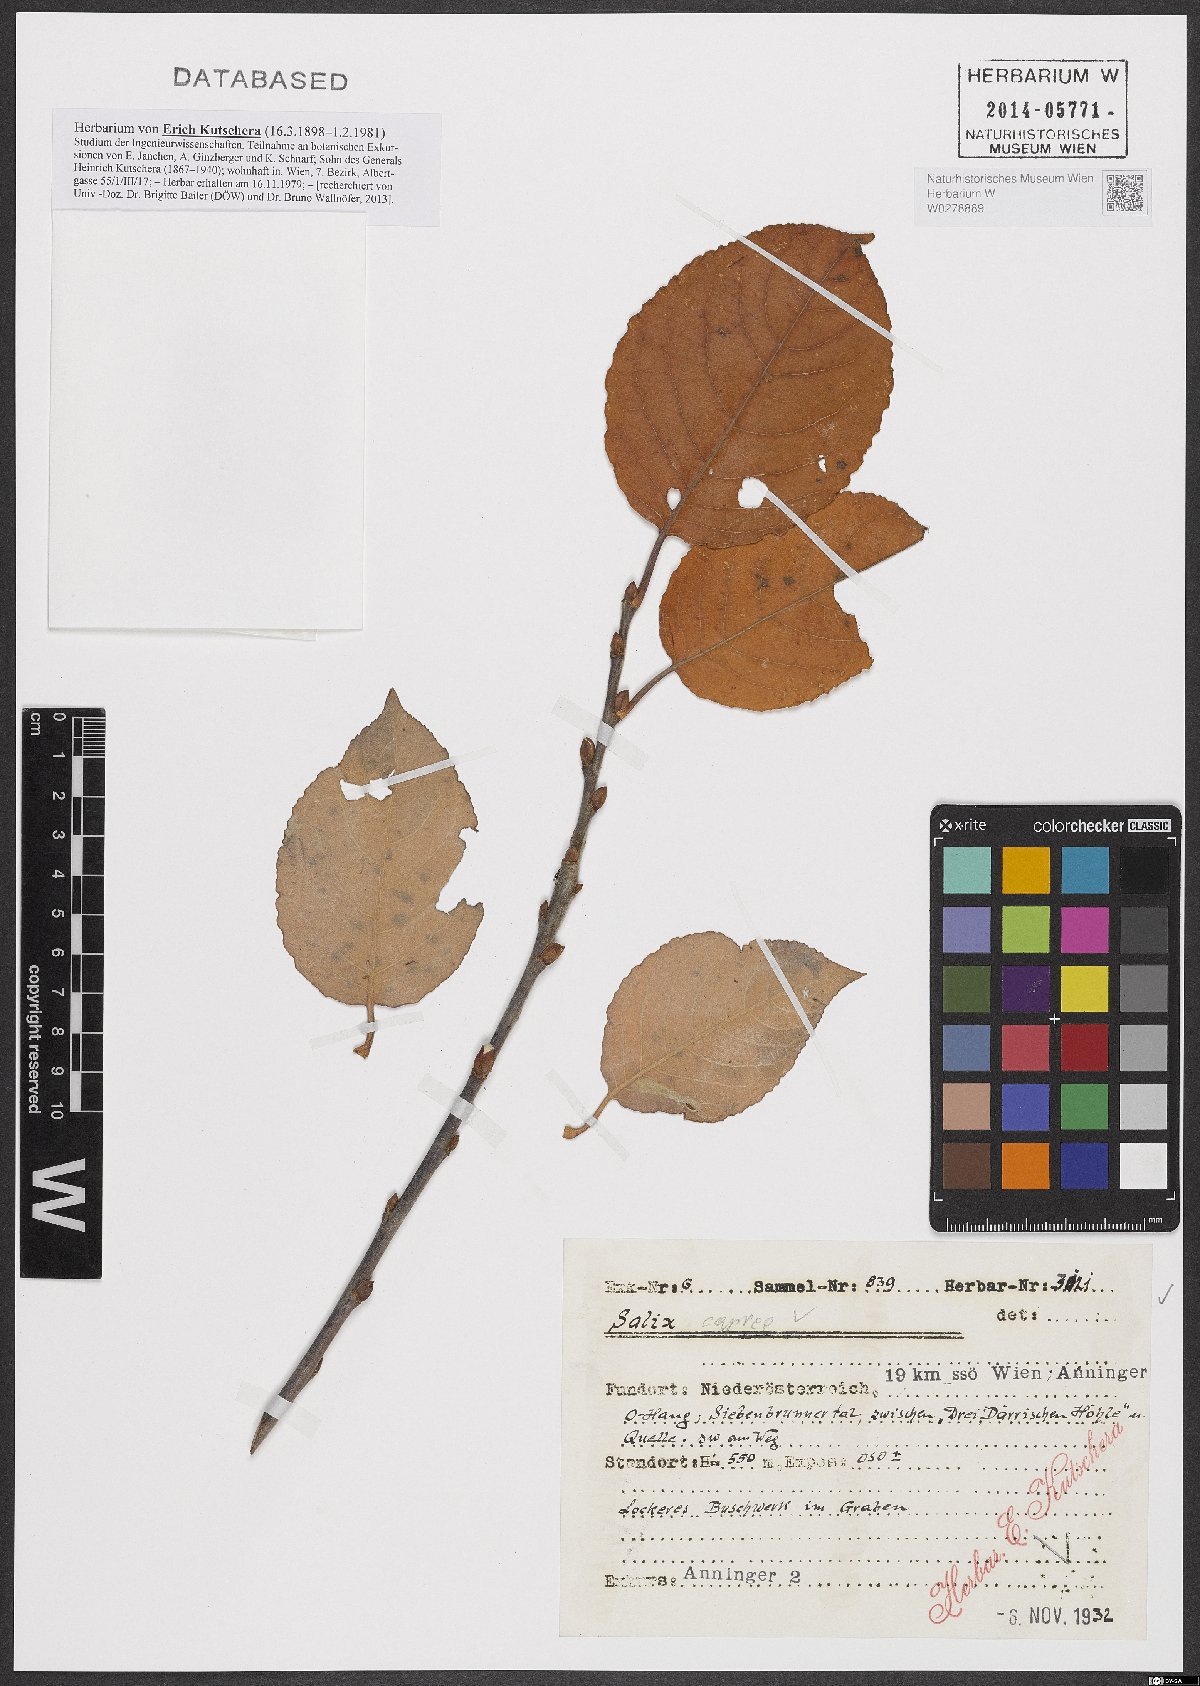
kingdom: Plantae
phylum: Tracheophyta
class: Magnoliopsida
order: Malpighiales
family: Salicaceae
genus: Salix
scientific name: Salix caprea
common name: Goat willow
